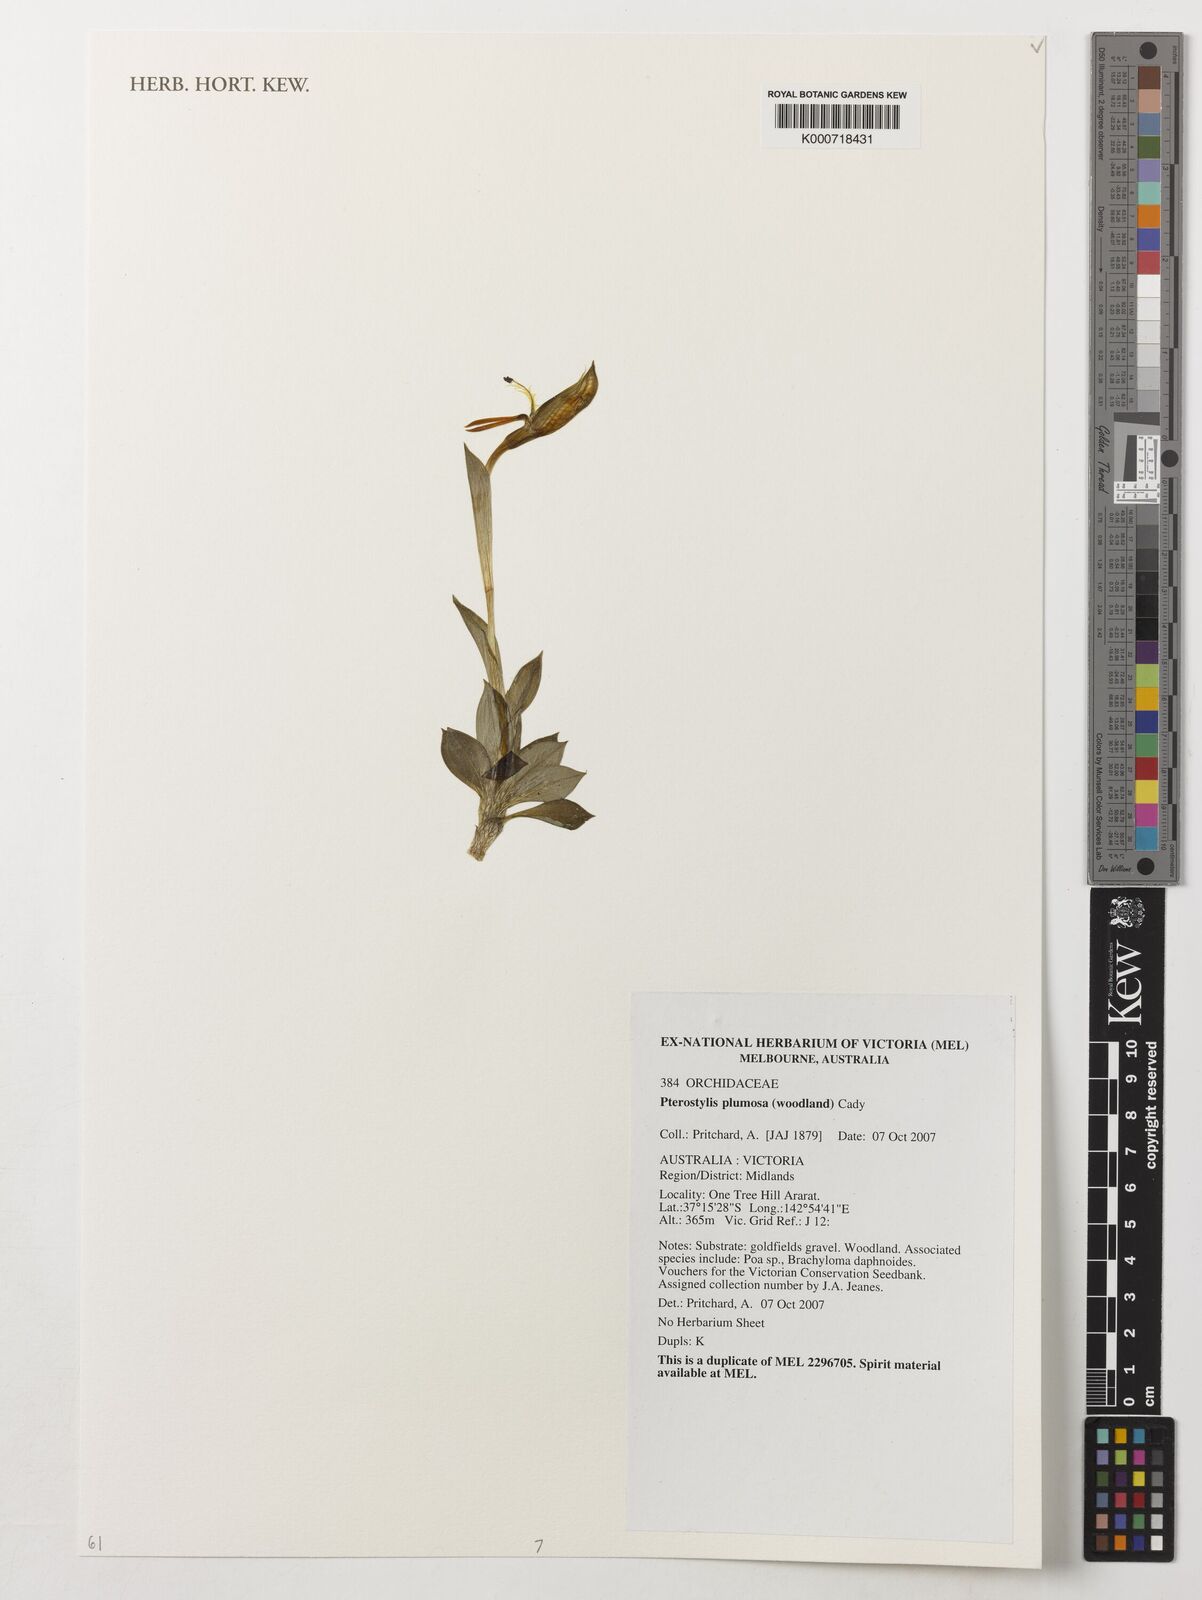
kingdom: Plantae
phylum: Tracheophyta
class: Liliopsida
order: Asparagales
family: Orchidaceae
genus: Pterostylis
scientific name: Pterostylis plumosa
